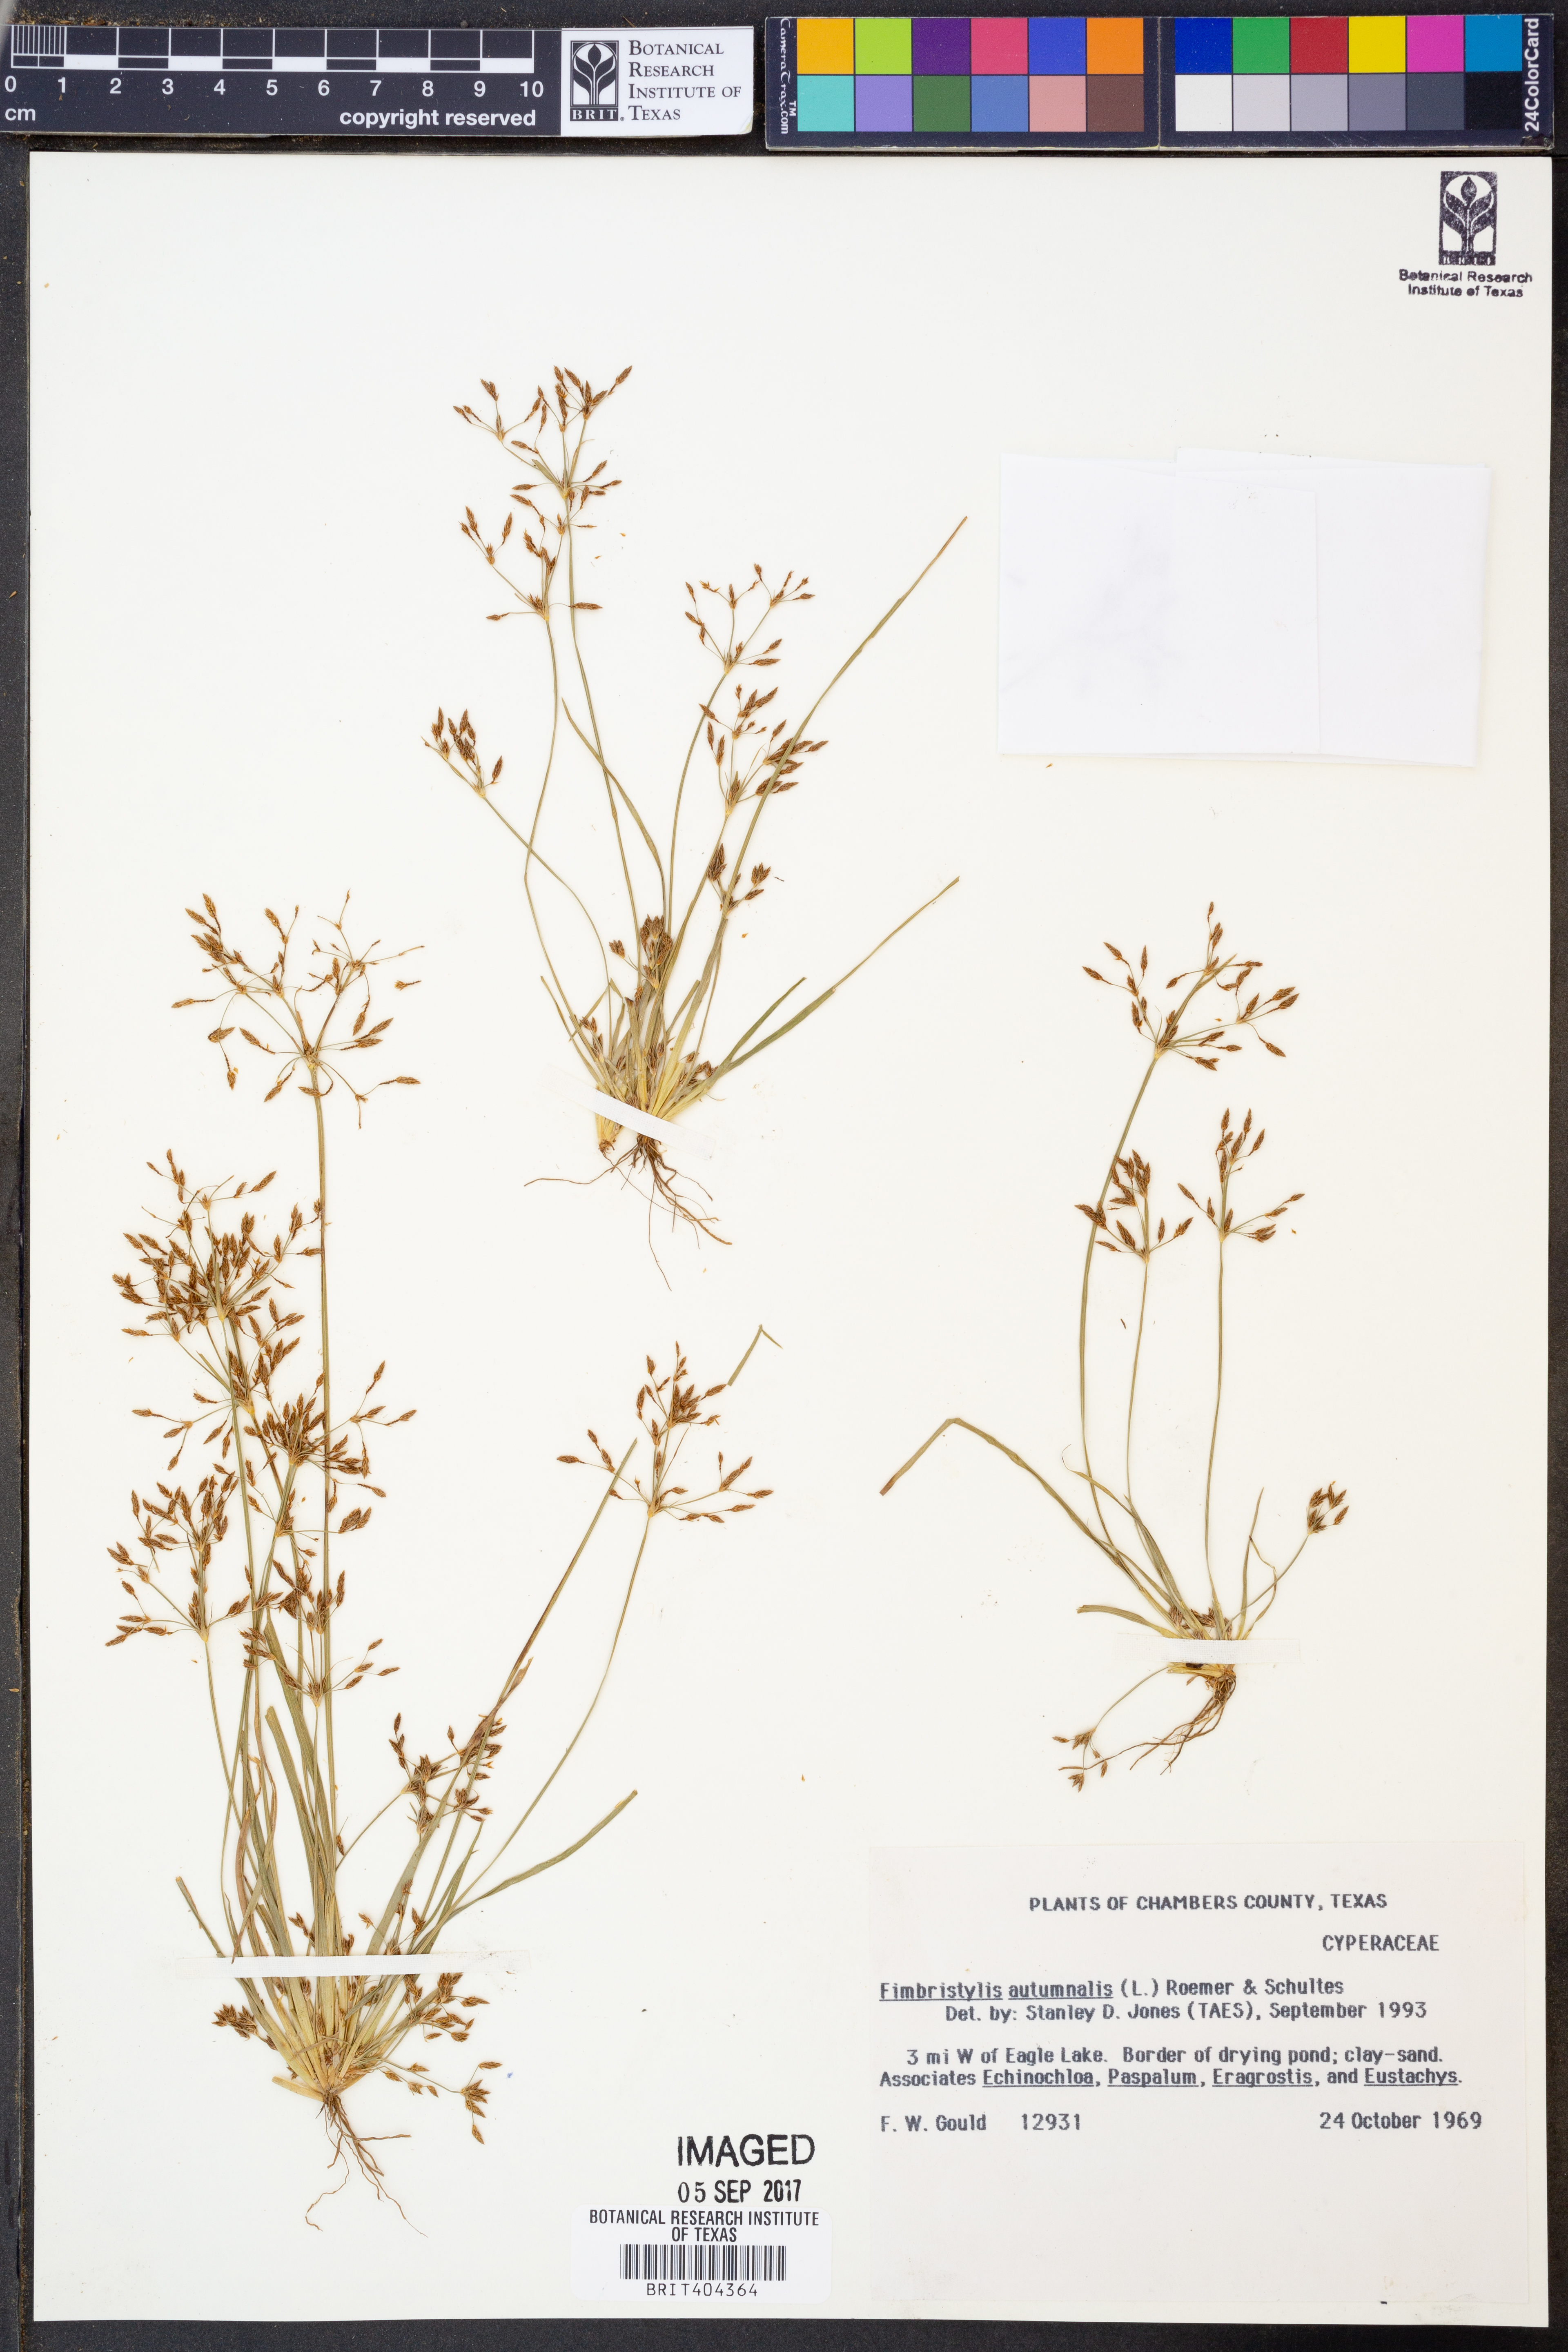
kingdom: Plantae
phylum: Tracheophyta
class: Liliopsida
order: Poales
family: Cyperaceae
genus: Fimbristylis
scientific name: Fimbristylis autumnalis
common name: Slender fimbristylis
